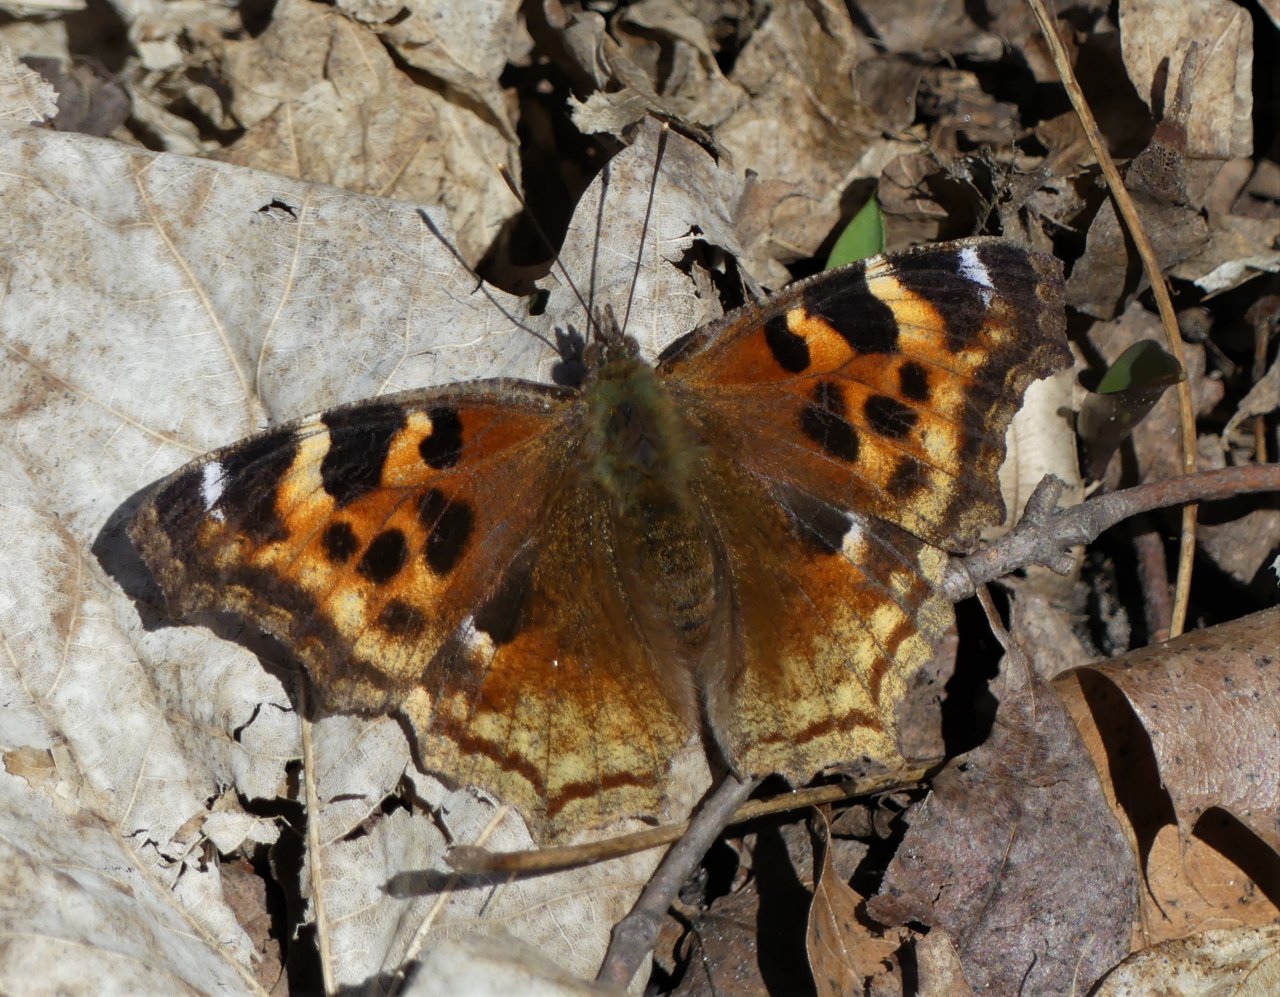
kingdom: Animalia
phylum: Arthropoda
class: Insecta
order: Lepidoptera
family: Nymphalidae
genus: Polygonia
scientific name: Polygonia vaualbum
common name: Compton Tortoiseshell
